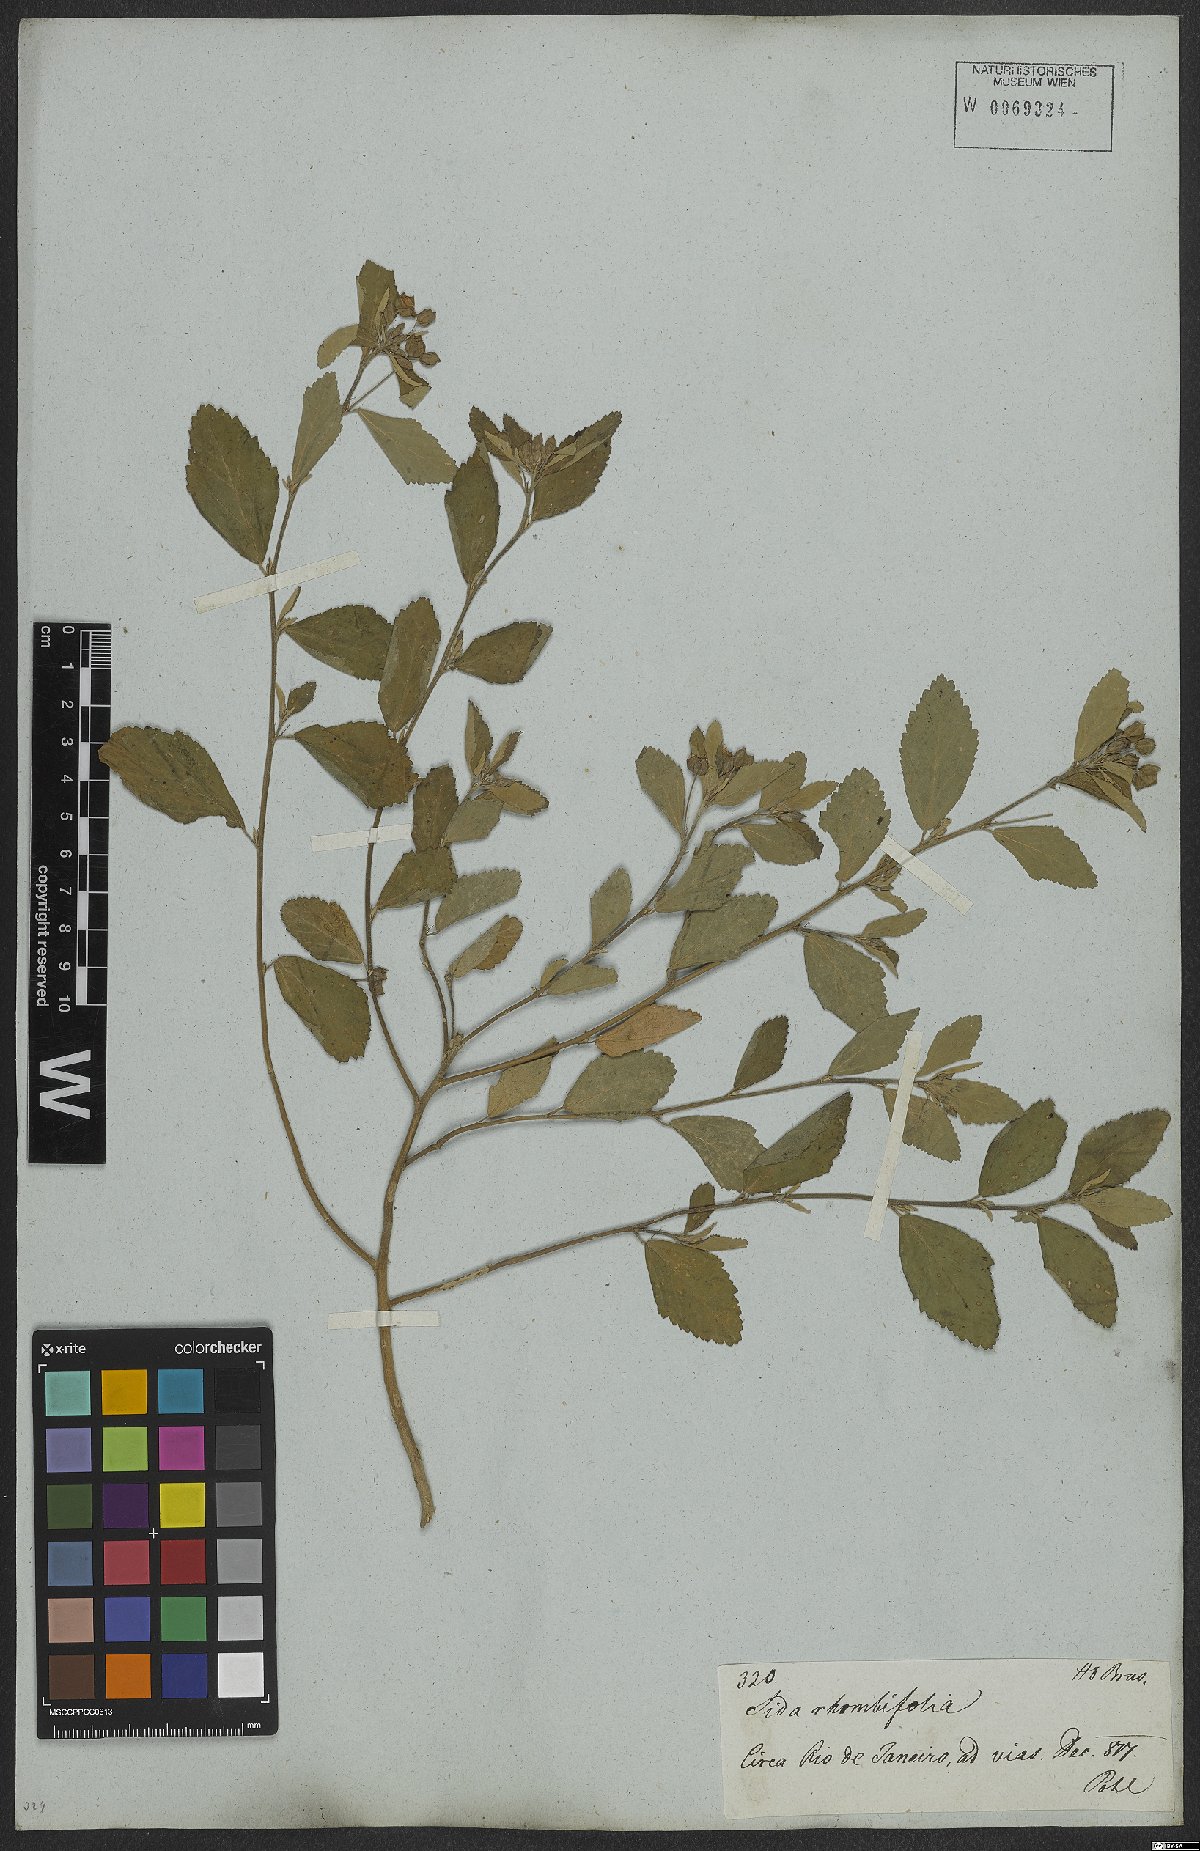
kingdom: Plantae
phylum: Tracheophyta
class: Magnoliopsida
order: Malvales
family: Malvaceae
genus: Sida
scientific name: Sida rhombifolia
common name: Queensland-hemp
